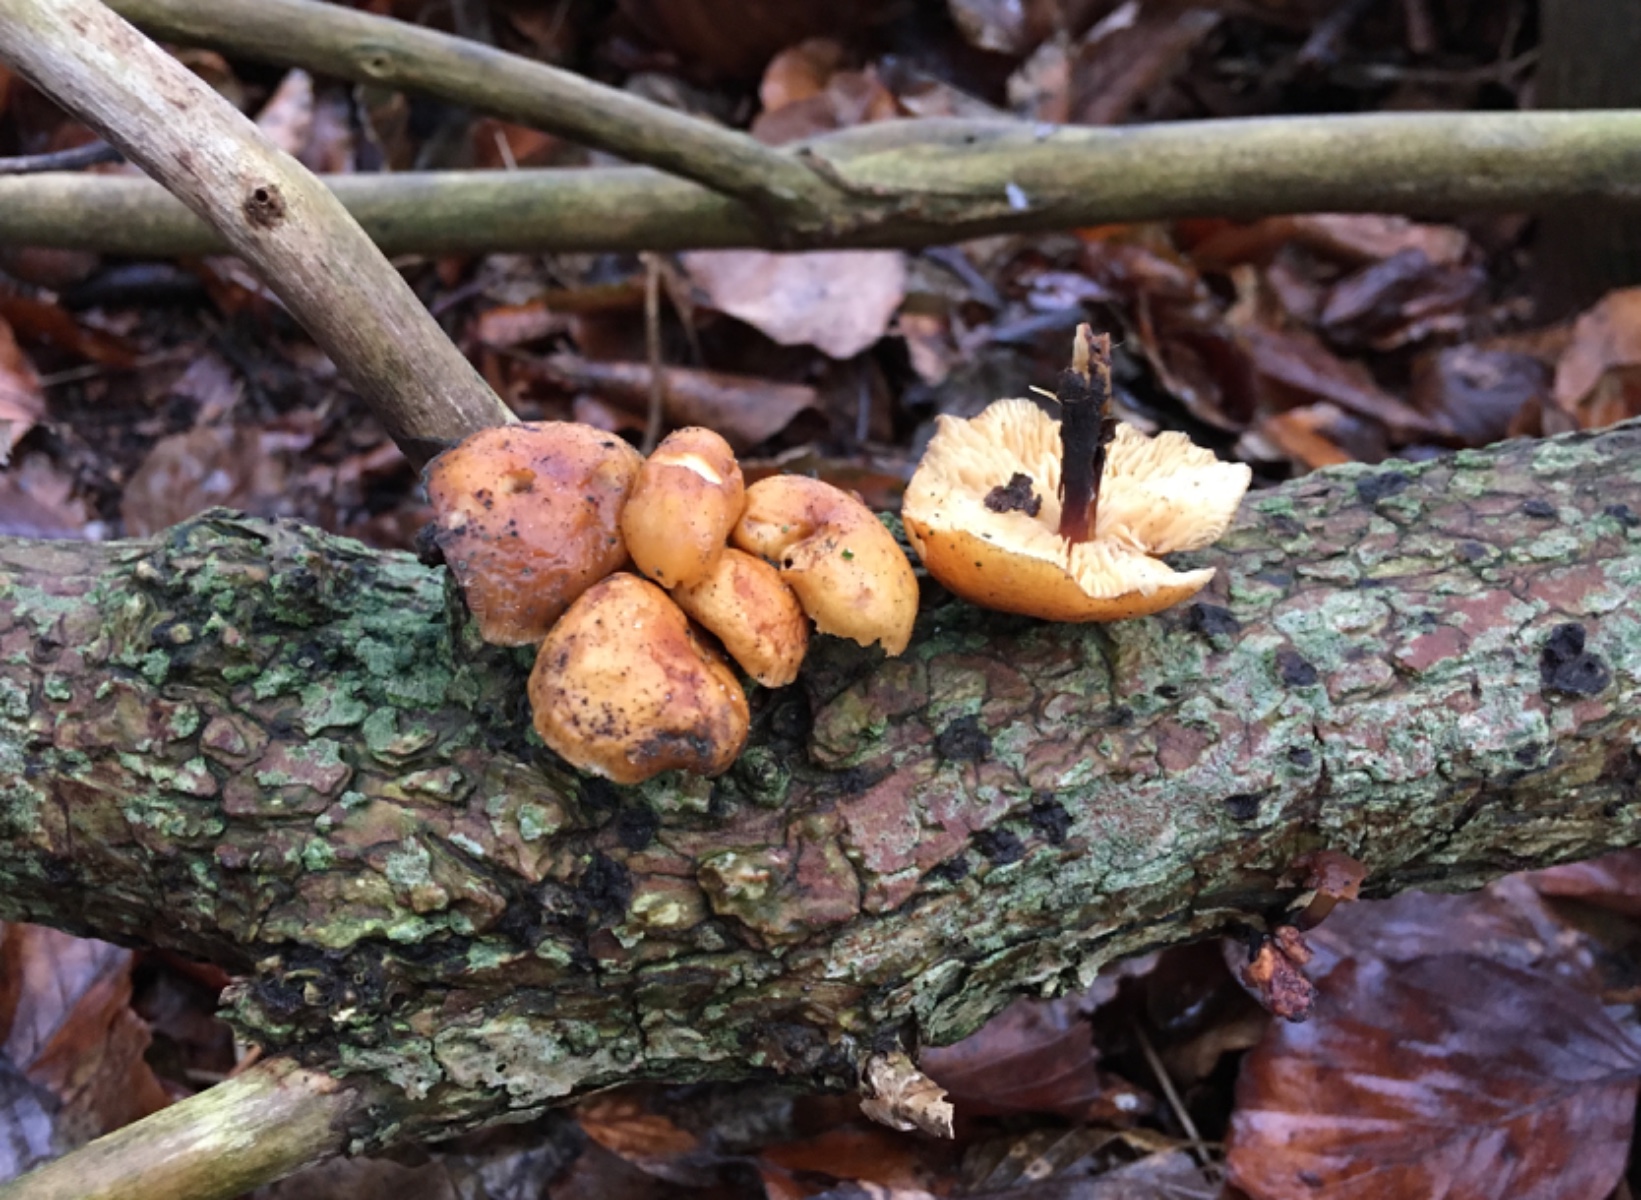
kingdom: Fungi
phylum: Basidiomycota
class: Agaricomycetes
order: Agaricales
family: Physalacriaceae
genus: Flammulina
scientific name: Flammulina velutipes
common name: gul fløjlsfod
